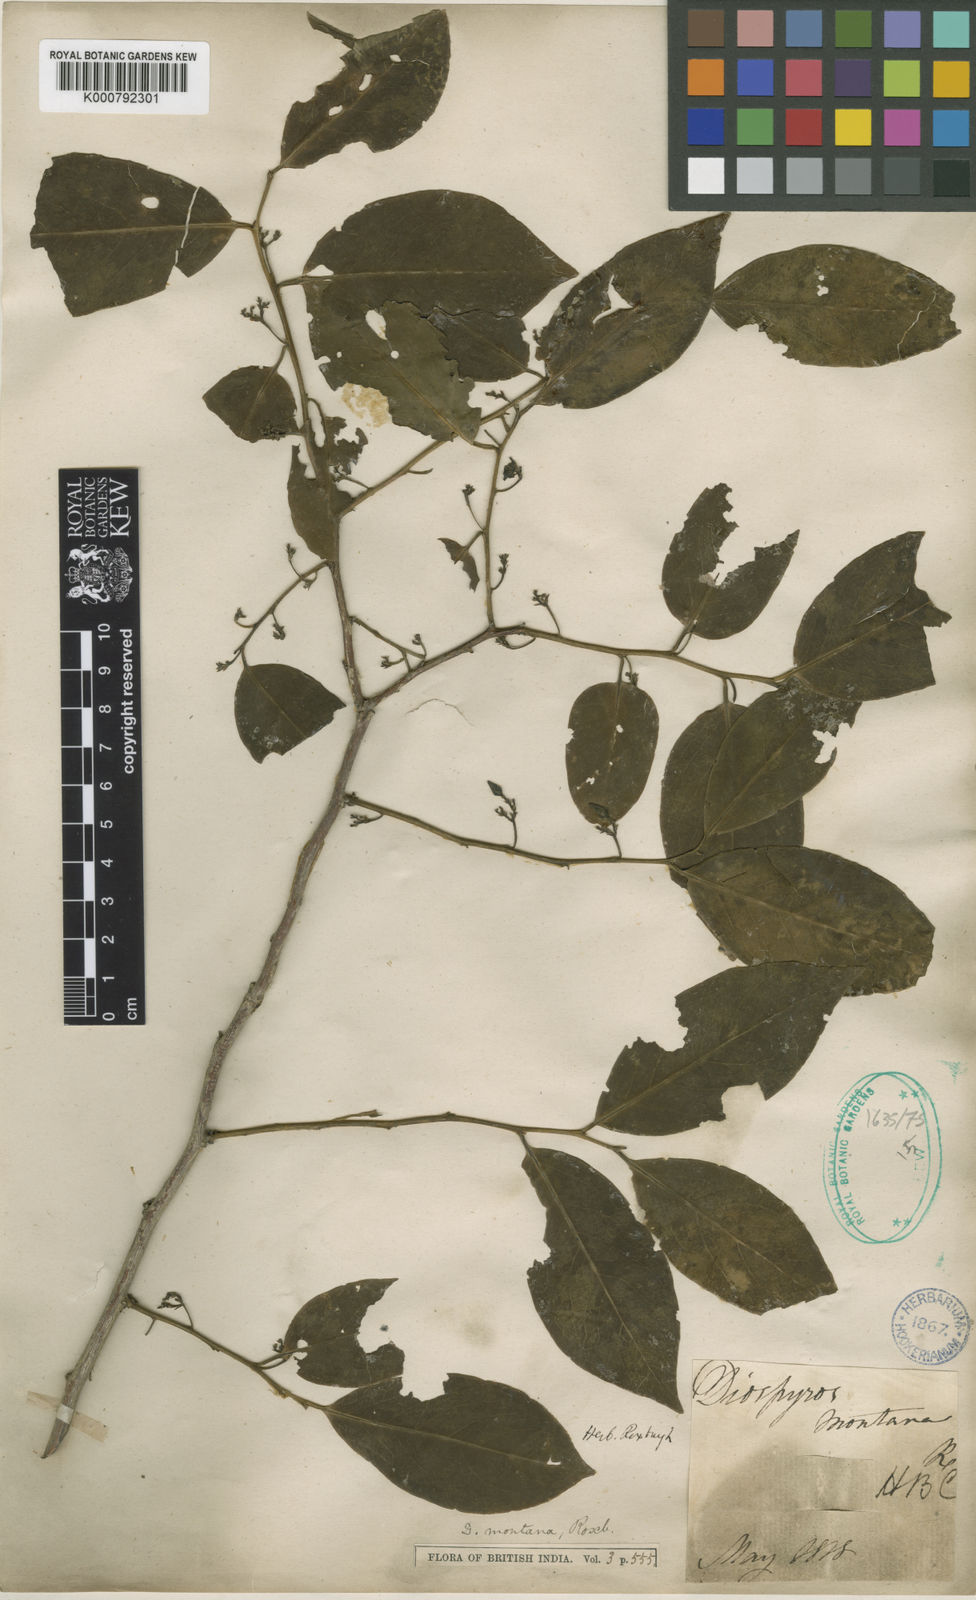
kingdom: Plantae
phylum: Tracheophyta
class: Magnoliopsida
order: Ericales
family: Ebenaceae
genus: Diospyros
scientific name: Diospyros montana
